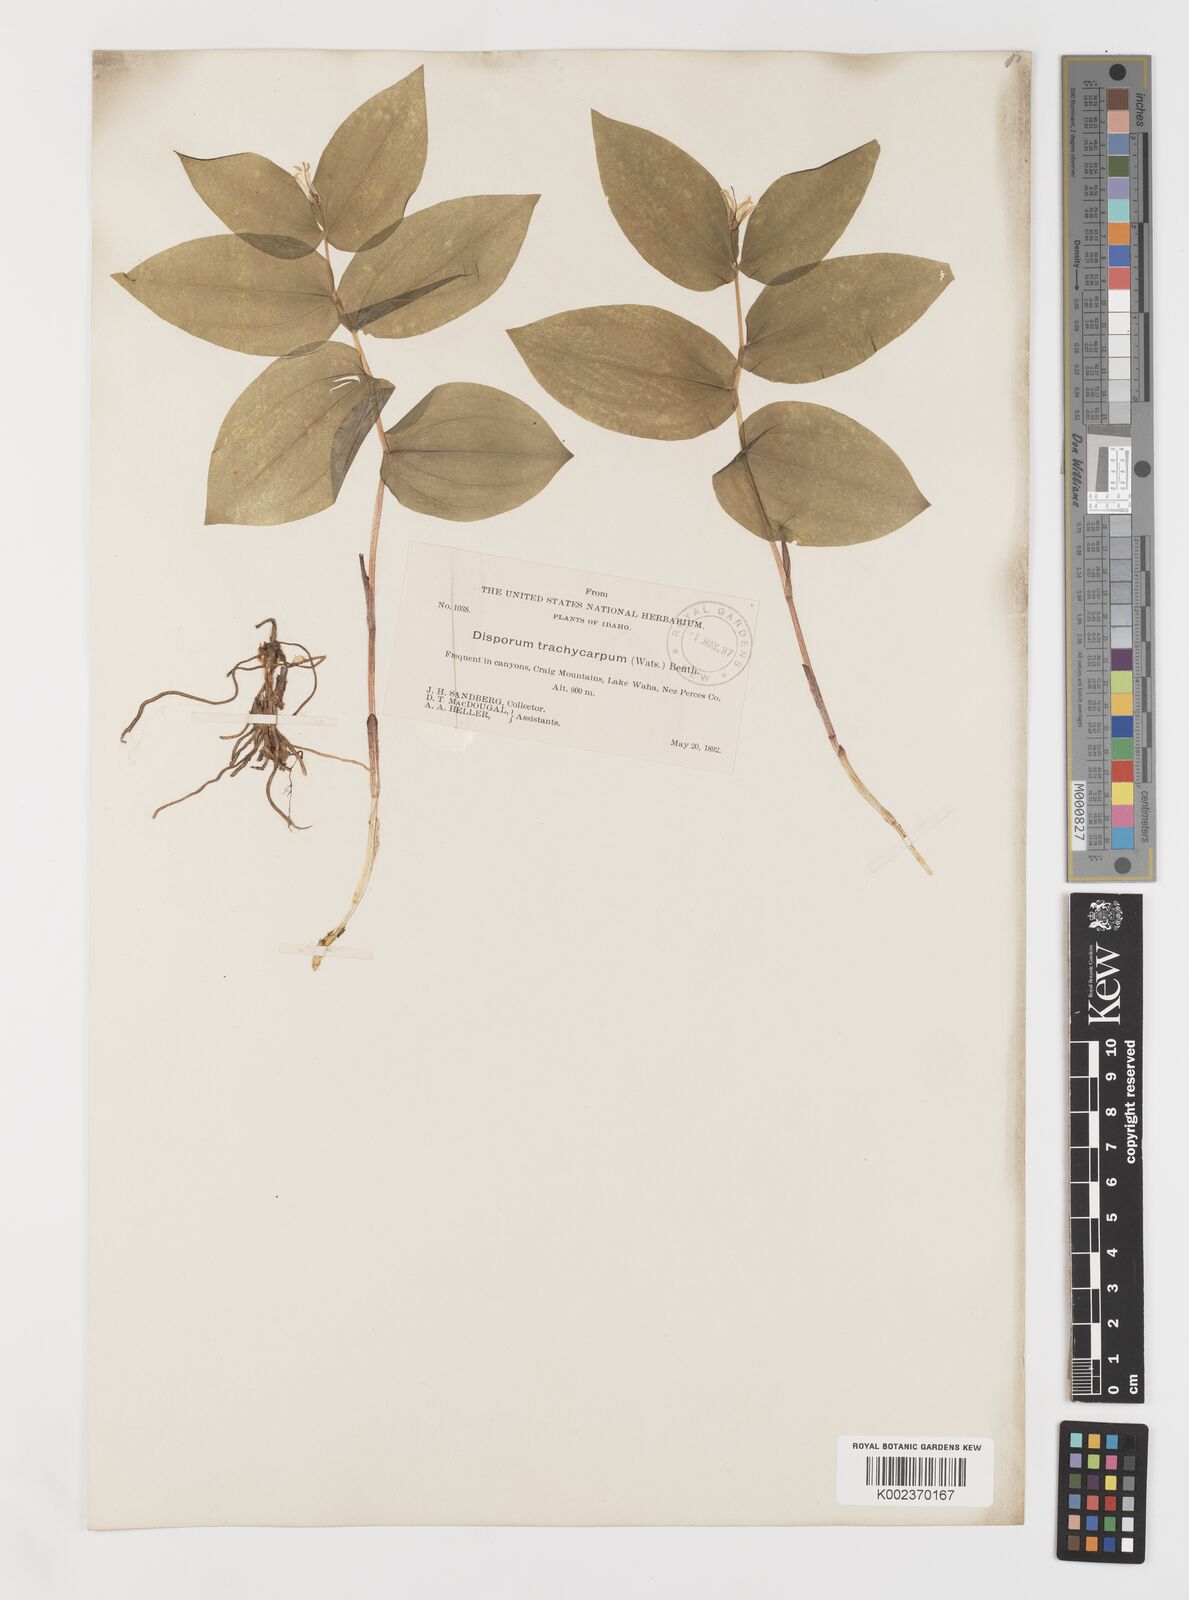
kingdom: Plantae
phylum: Tracheophyta
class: Liliopsida
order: Liliales
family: Liliaceae
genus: Prosartes
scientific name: Prosartes trachycarpa
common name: Rough-fruit fairy-bells
